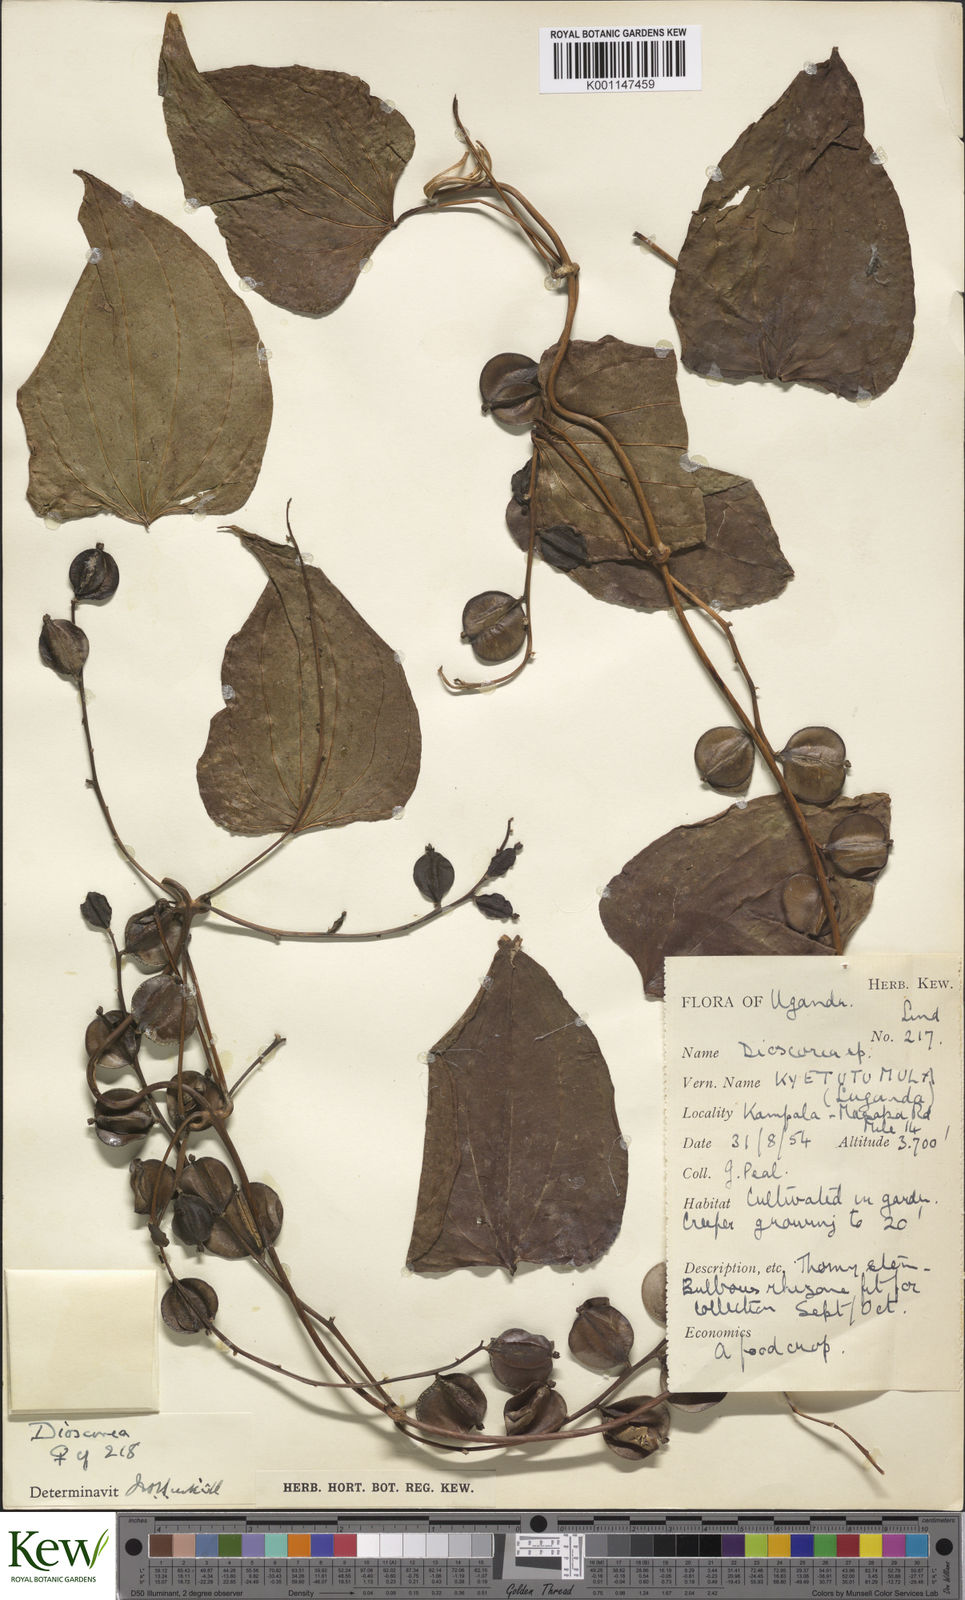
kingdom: Plantae
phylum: Tracheophyta
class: Liliopsida
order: Dioscoreales
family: Dioscoreaceae
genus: Dioscorea
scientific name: Dioscorea
